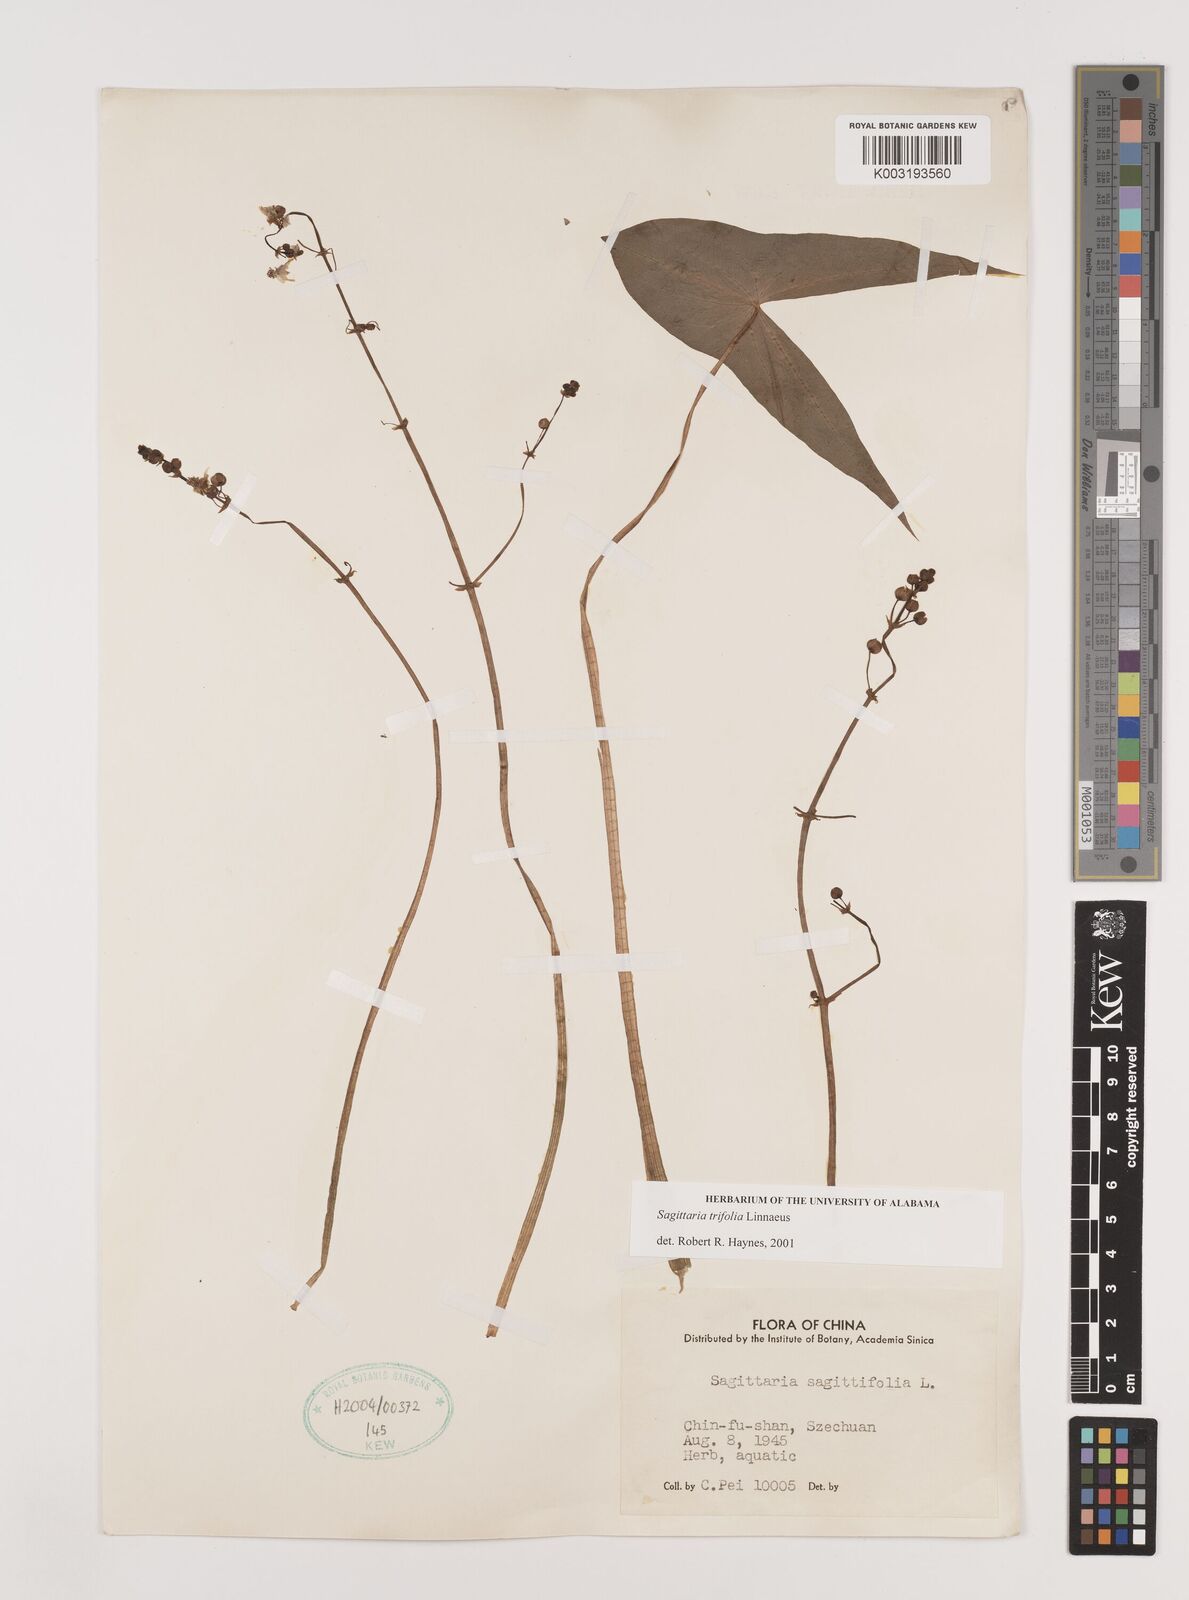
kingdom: Plantae
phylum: Tracheophyta
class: Liliopsida
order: Alismatales
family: Alismataceae
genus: Sagittaria
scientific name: Sagittaria trifolia
